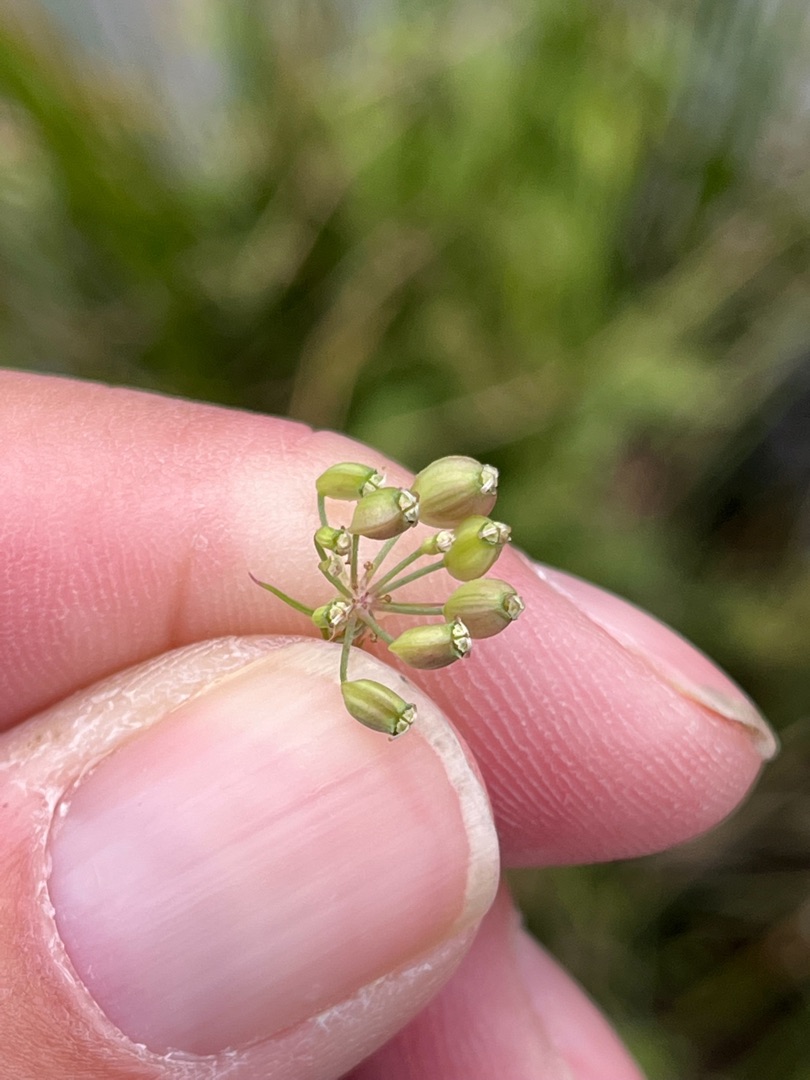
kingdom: Plantae
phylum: Tracheophyta
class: Magnoliopsida
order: Apiales
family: Apiaceae
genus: Thysselinum
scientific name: Thysselinum palustre
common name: Kær-svovlrod
